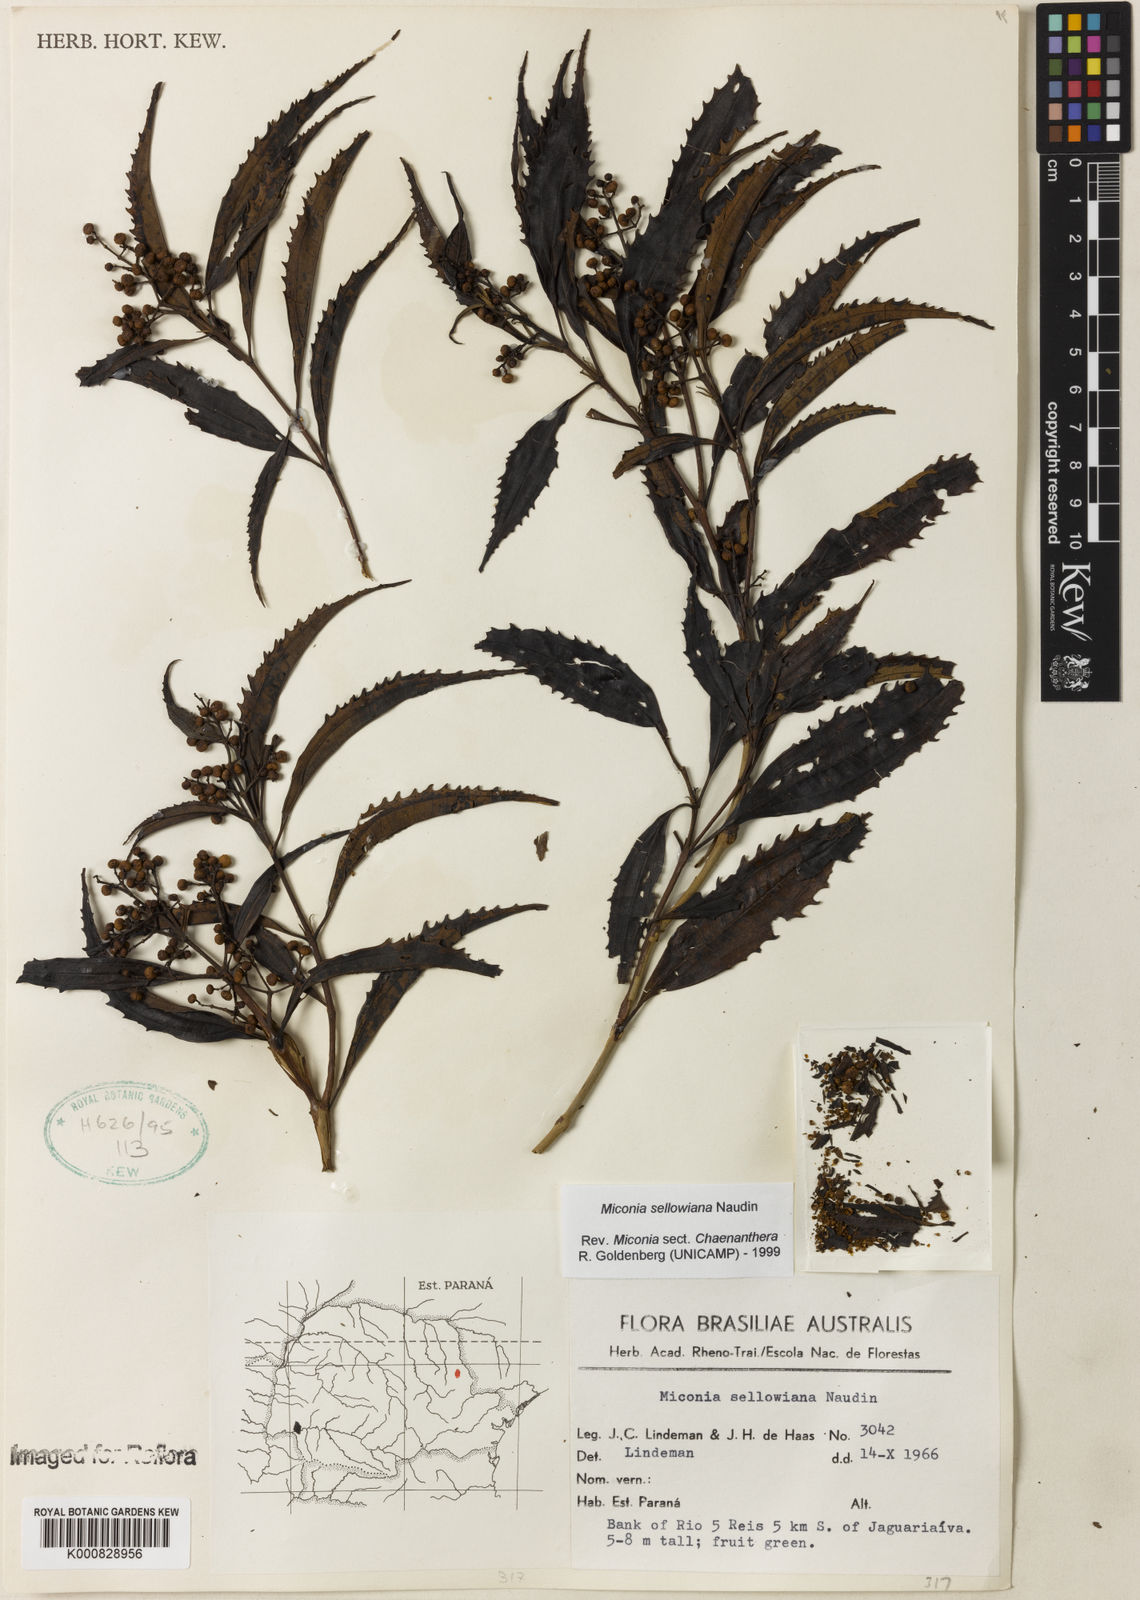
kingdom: Plantae
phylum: Tracheophyta
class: Magnoliopsida
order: Myrtales
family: Melastomataceae
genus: Miconia
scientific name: Miconia sellowiana
